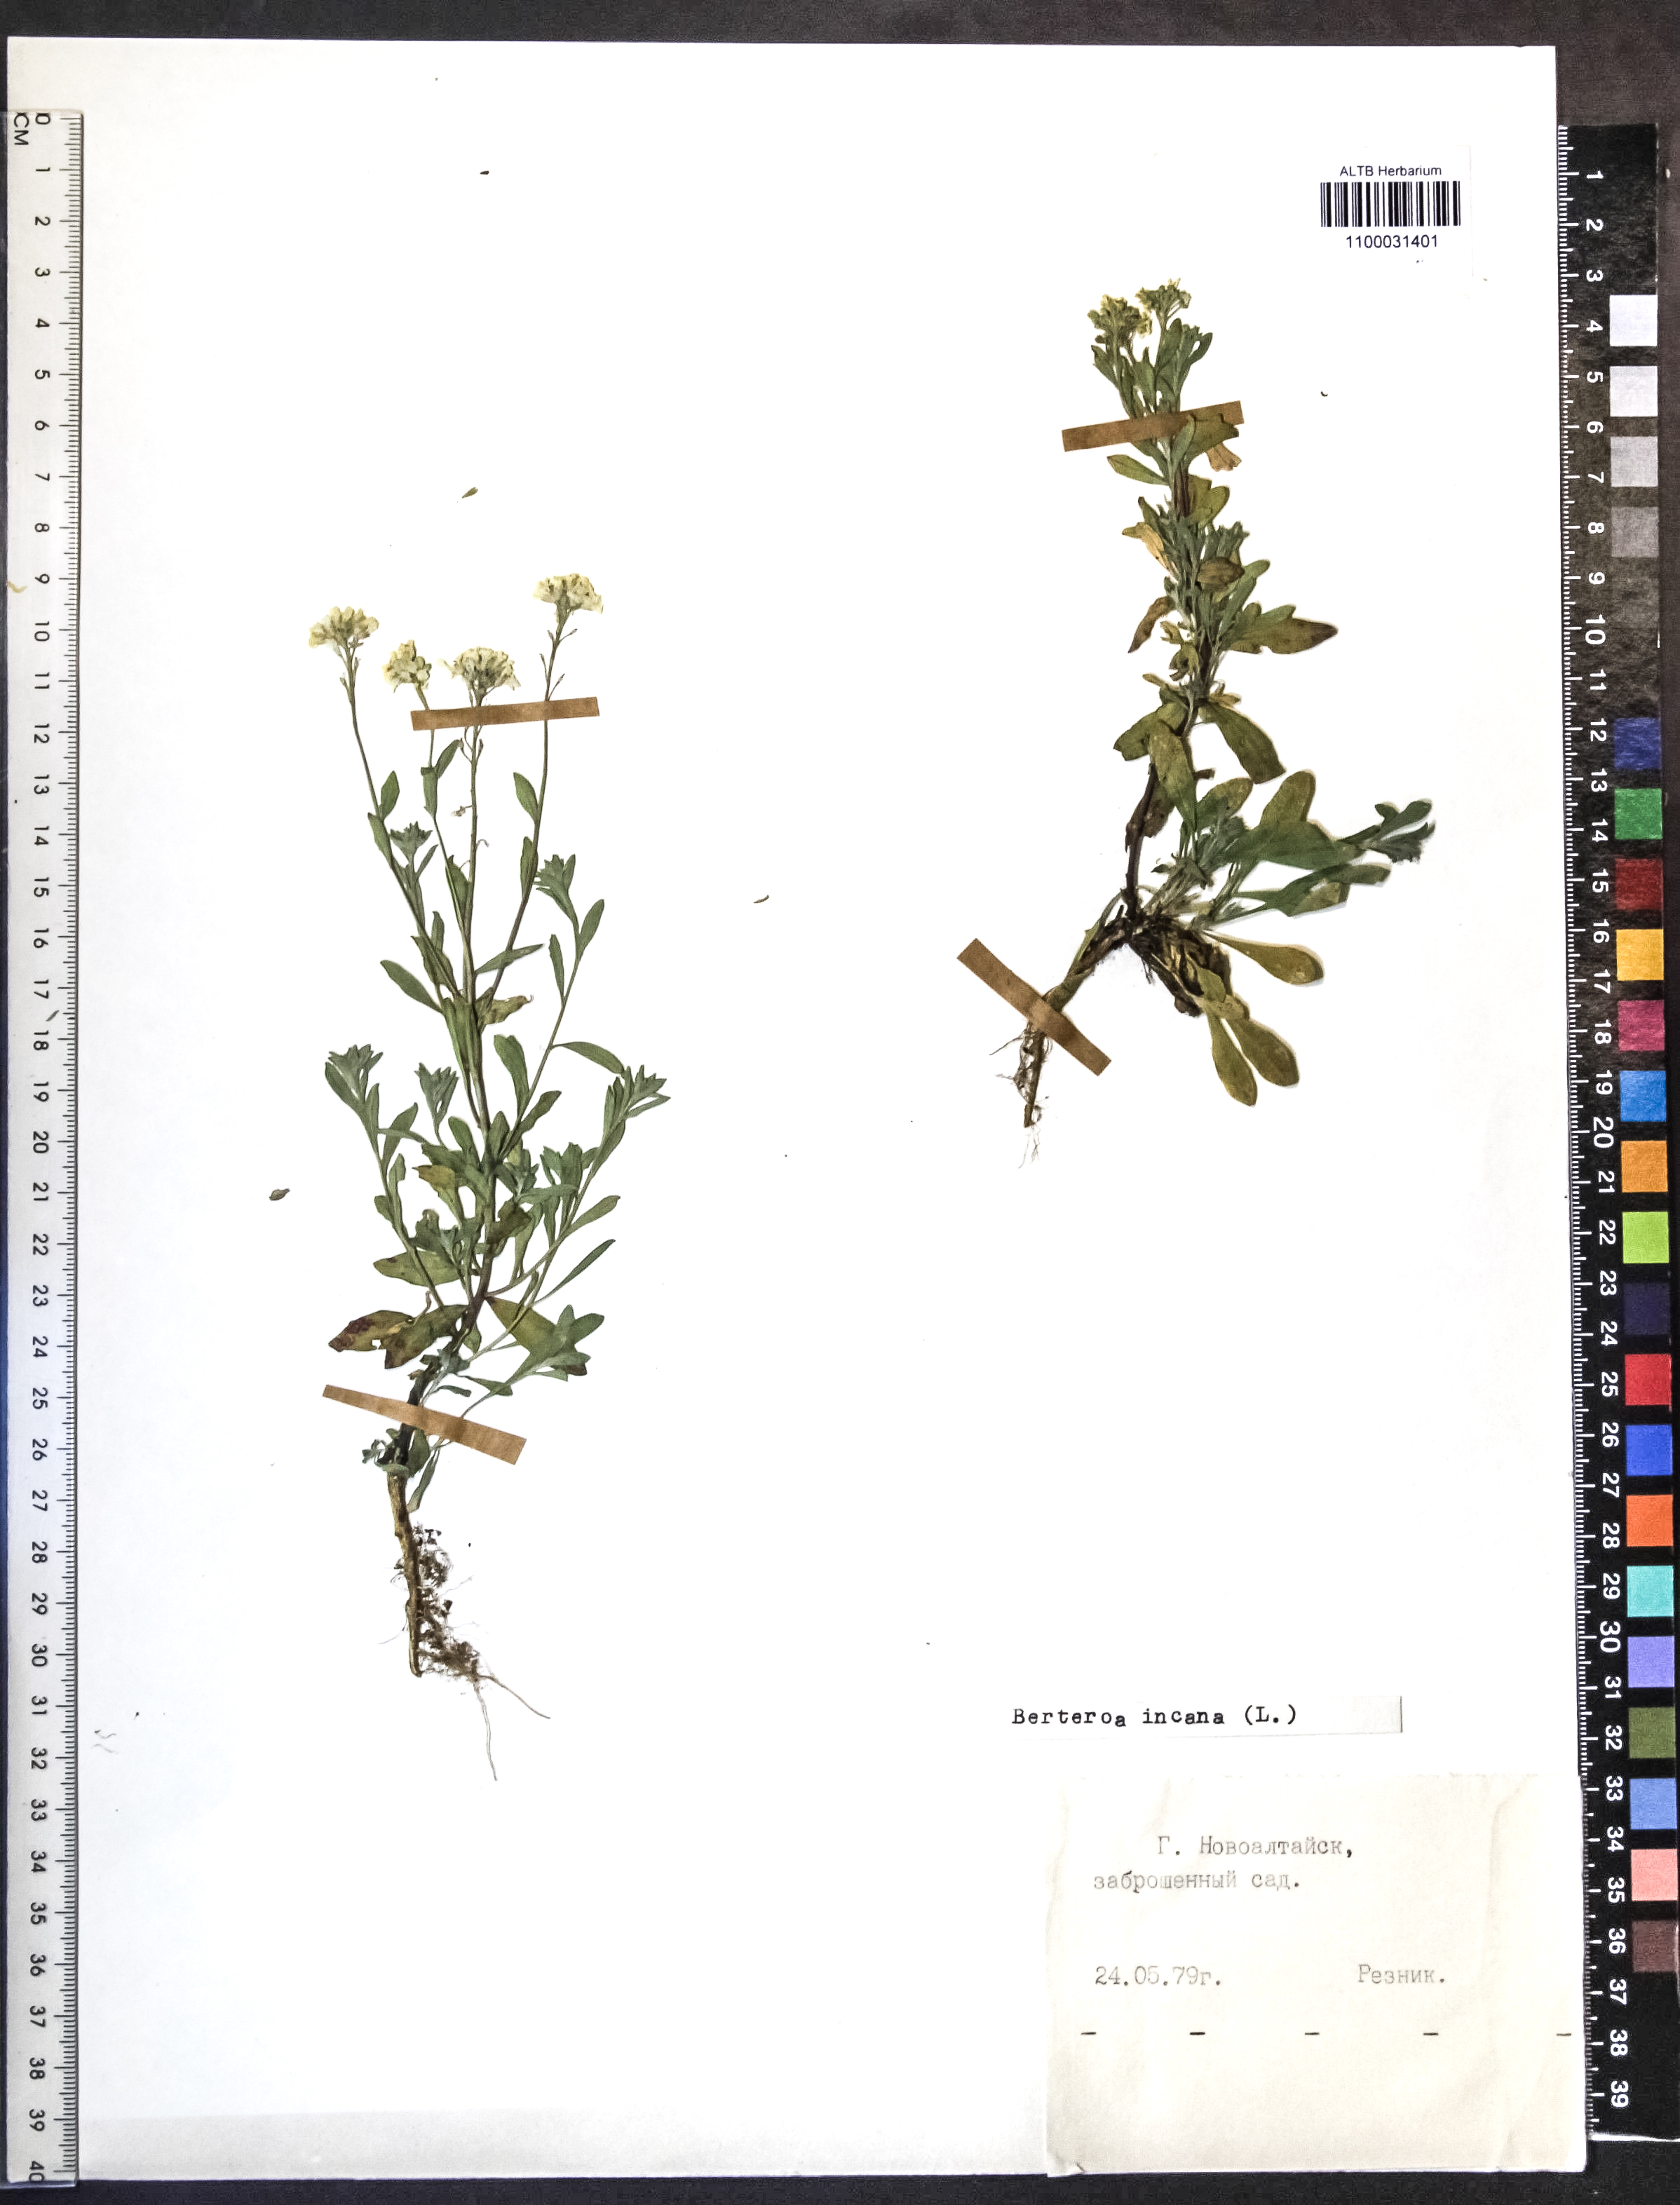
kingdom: Plantae
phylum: Tracheophyta
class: Magnoliopsida
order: Brassicales
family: Brassicaceae
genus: Berteroa
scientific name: Berteroa incana
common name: Hoary alison
